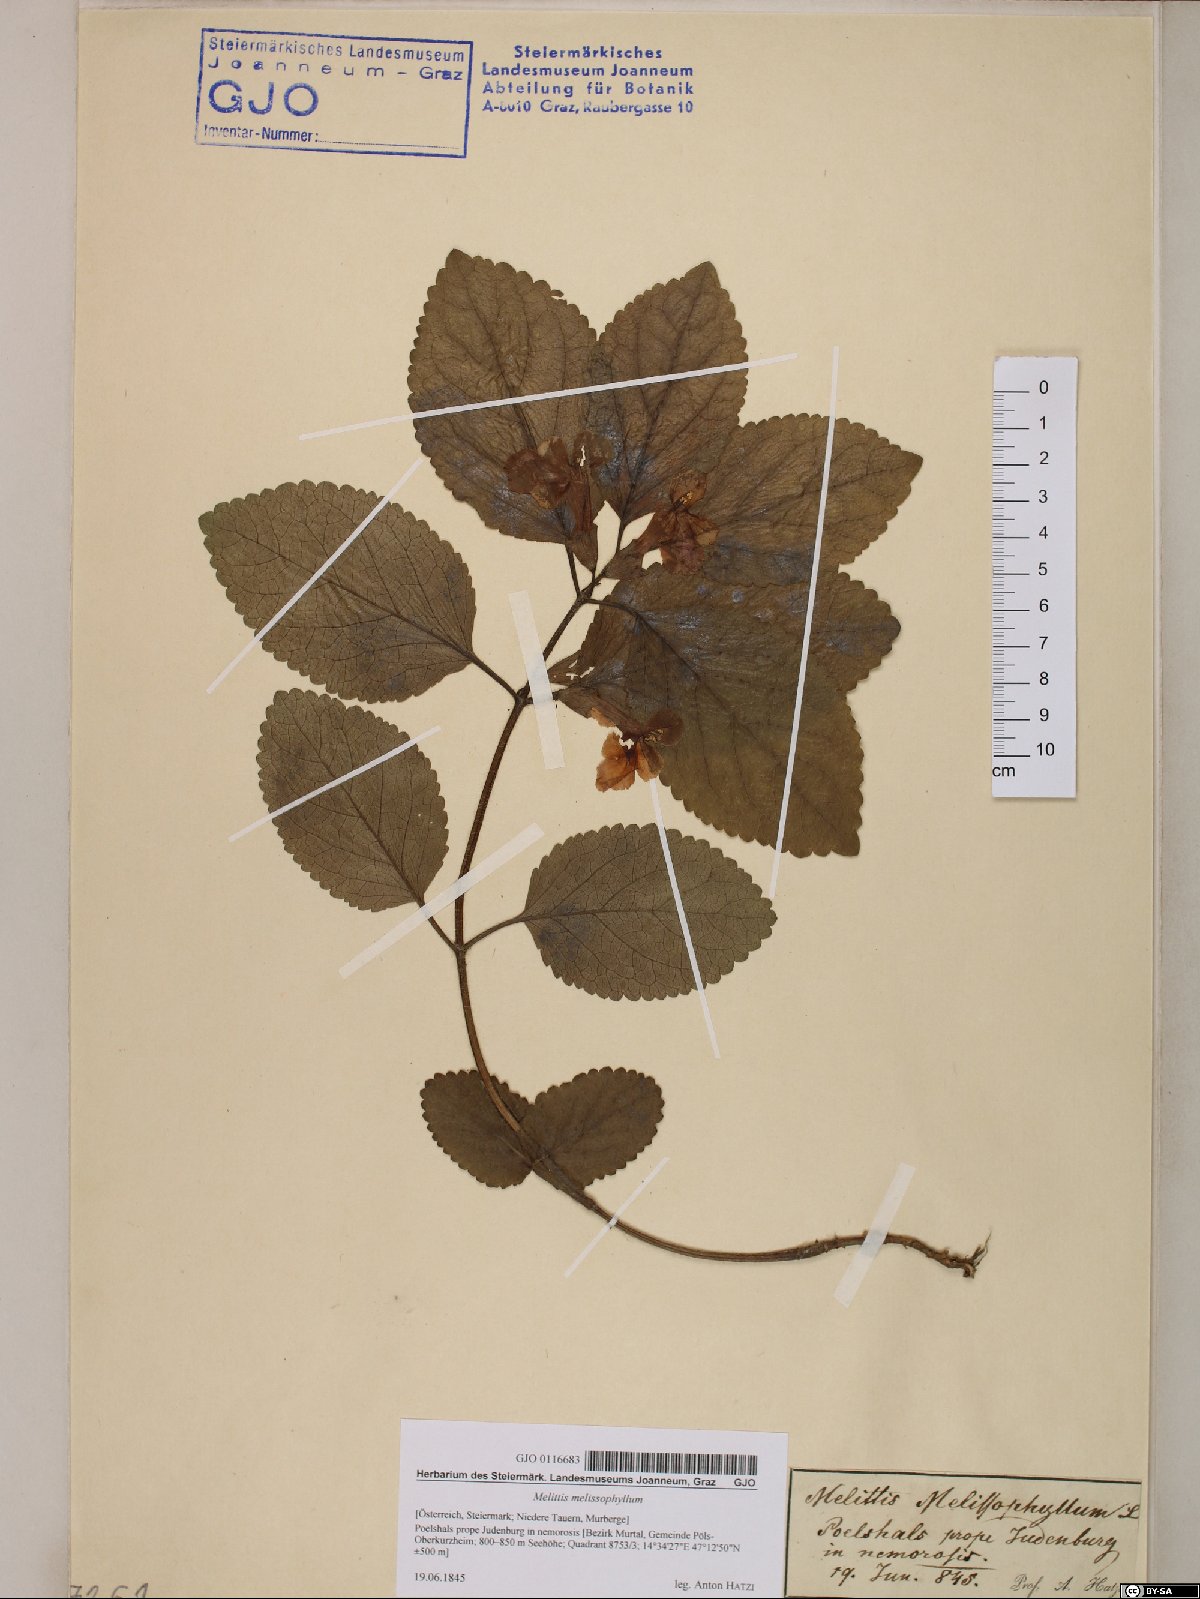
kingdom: Plantae
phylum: Tracheophyta
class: Magnoliopsida
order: Lamiales
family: Lamiaceae
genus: Melittis
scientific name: Melittis melissophyllum
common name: Bastard balm
